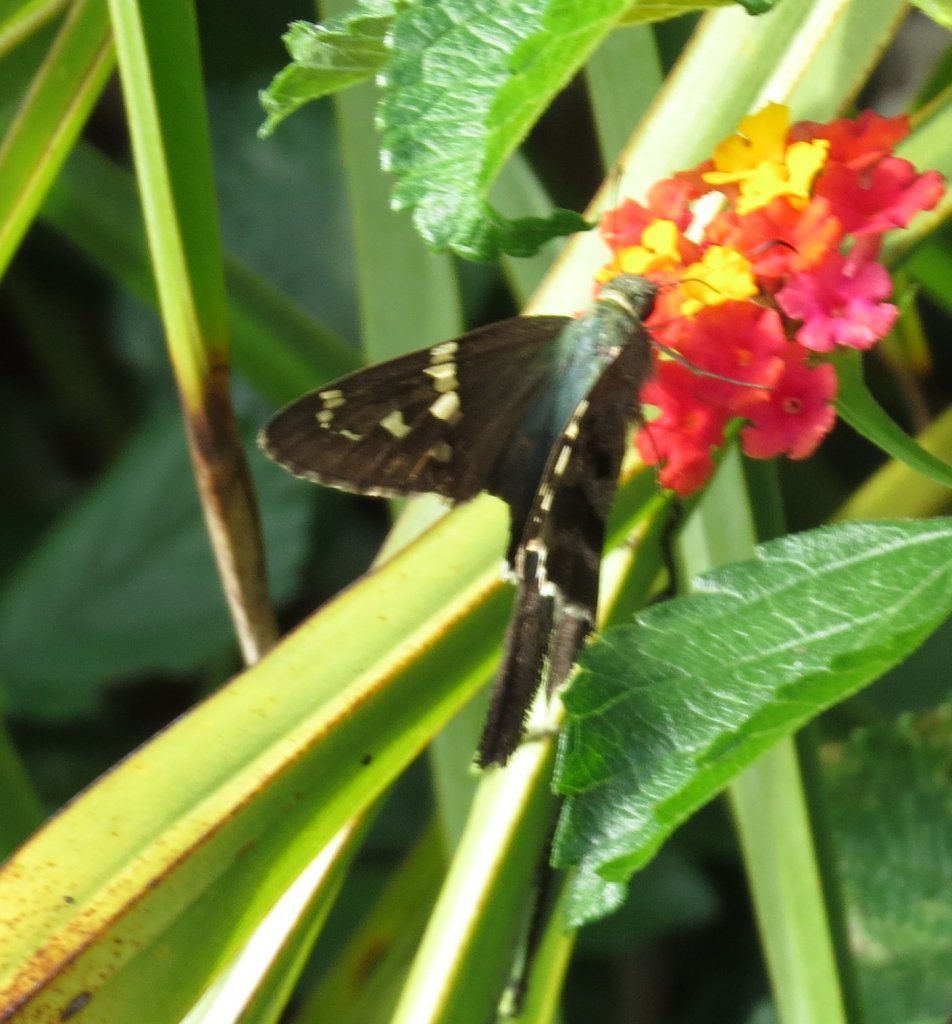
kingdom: Animalia
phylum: Arthropoda
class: Insecta
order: Lepidoptera
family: Hesperiidae
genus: Urbanus
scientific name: Urbanus proteus
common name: Long-tailed Skipper
